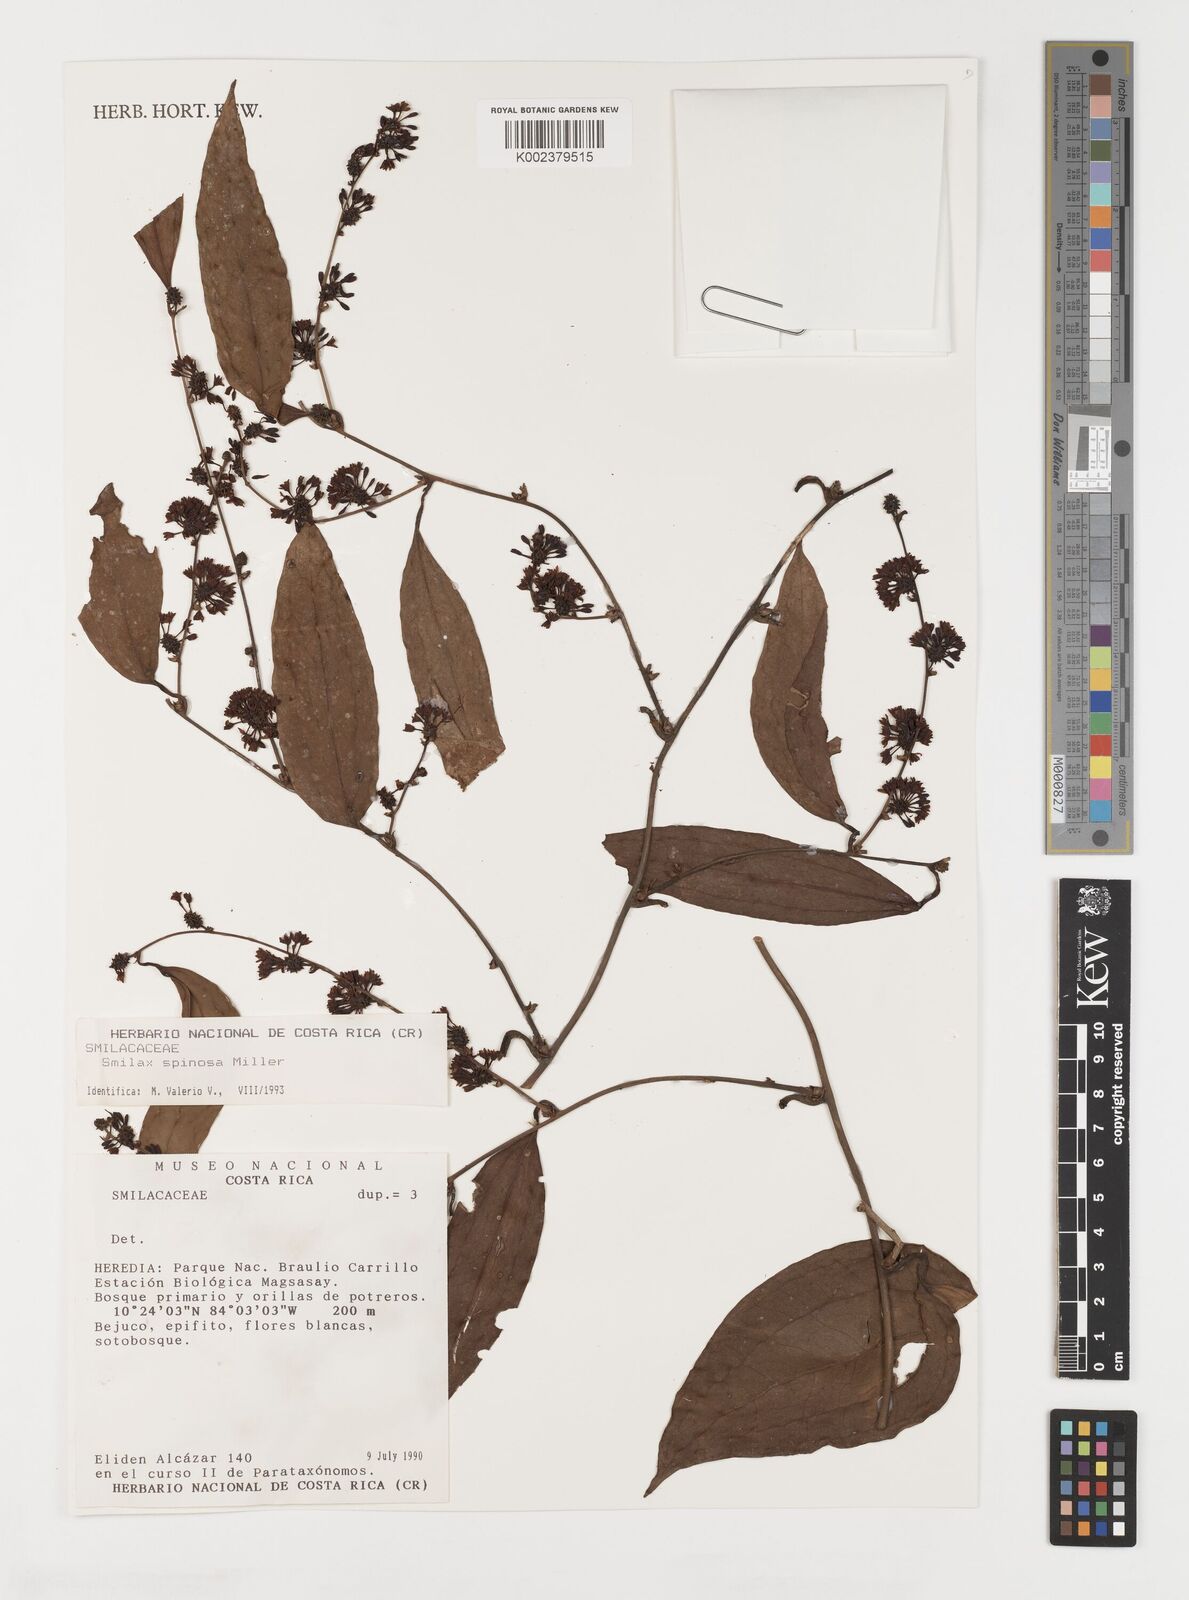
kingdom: Plantae
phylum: Tracheophyta
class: Liliopsida
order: Liliales
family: Smilacaceae
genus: Smilax
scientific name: Smilax spinosa
